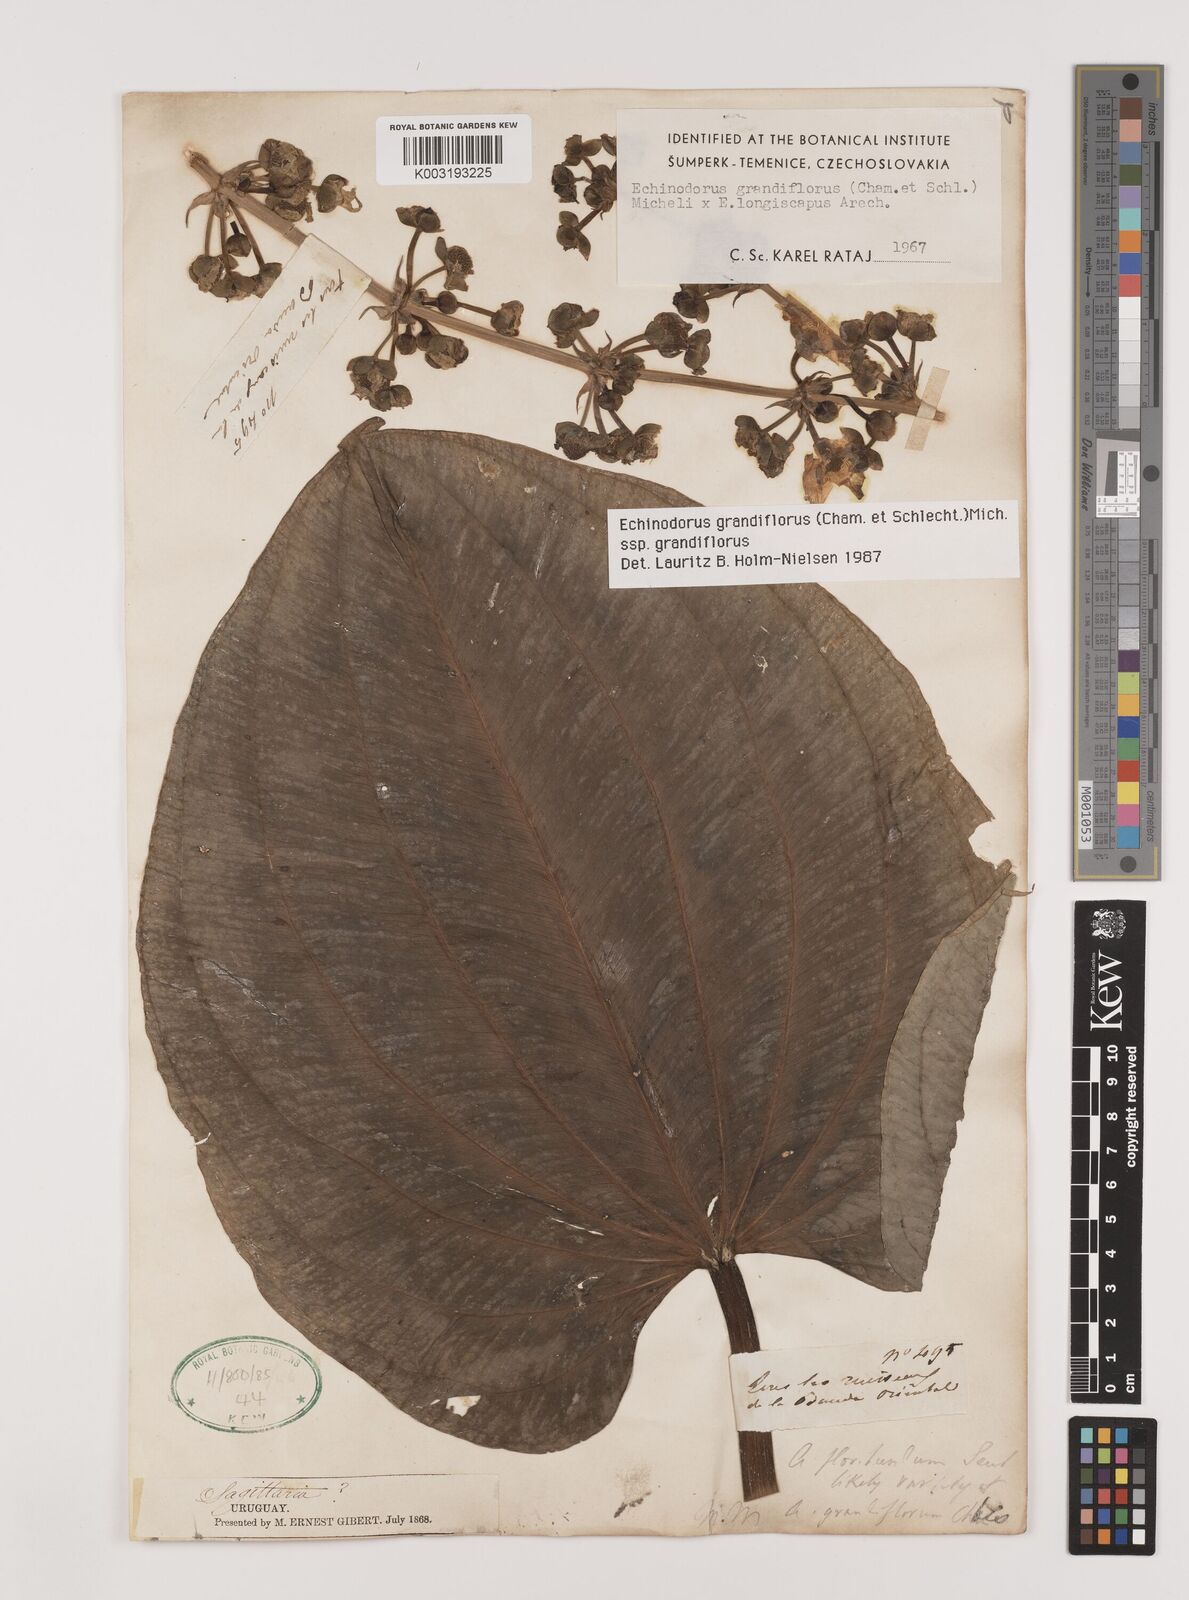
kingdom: Plantae
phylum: Tracheophyta
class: Liliopsida
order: Alismatales
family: Alismataceae
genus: Aquarius
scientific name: Aquarius grandiflorus
